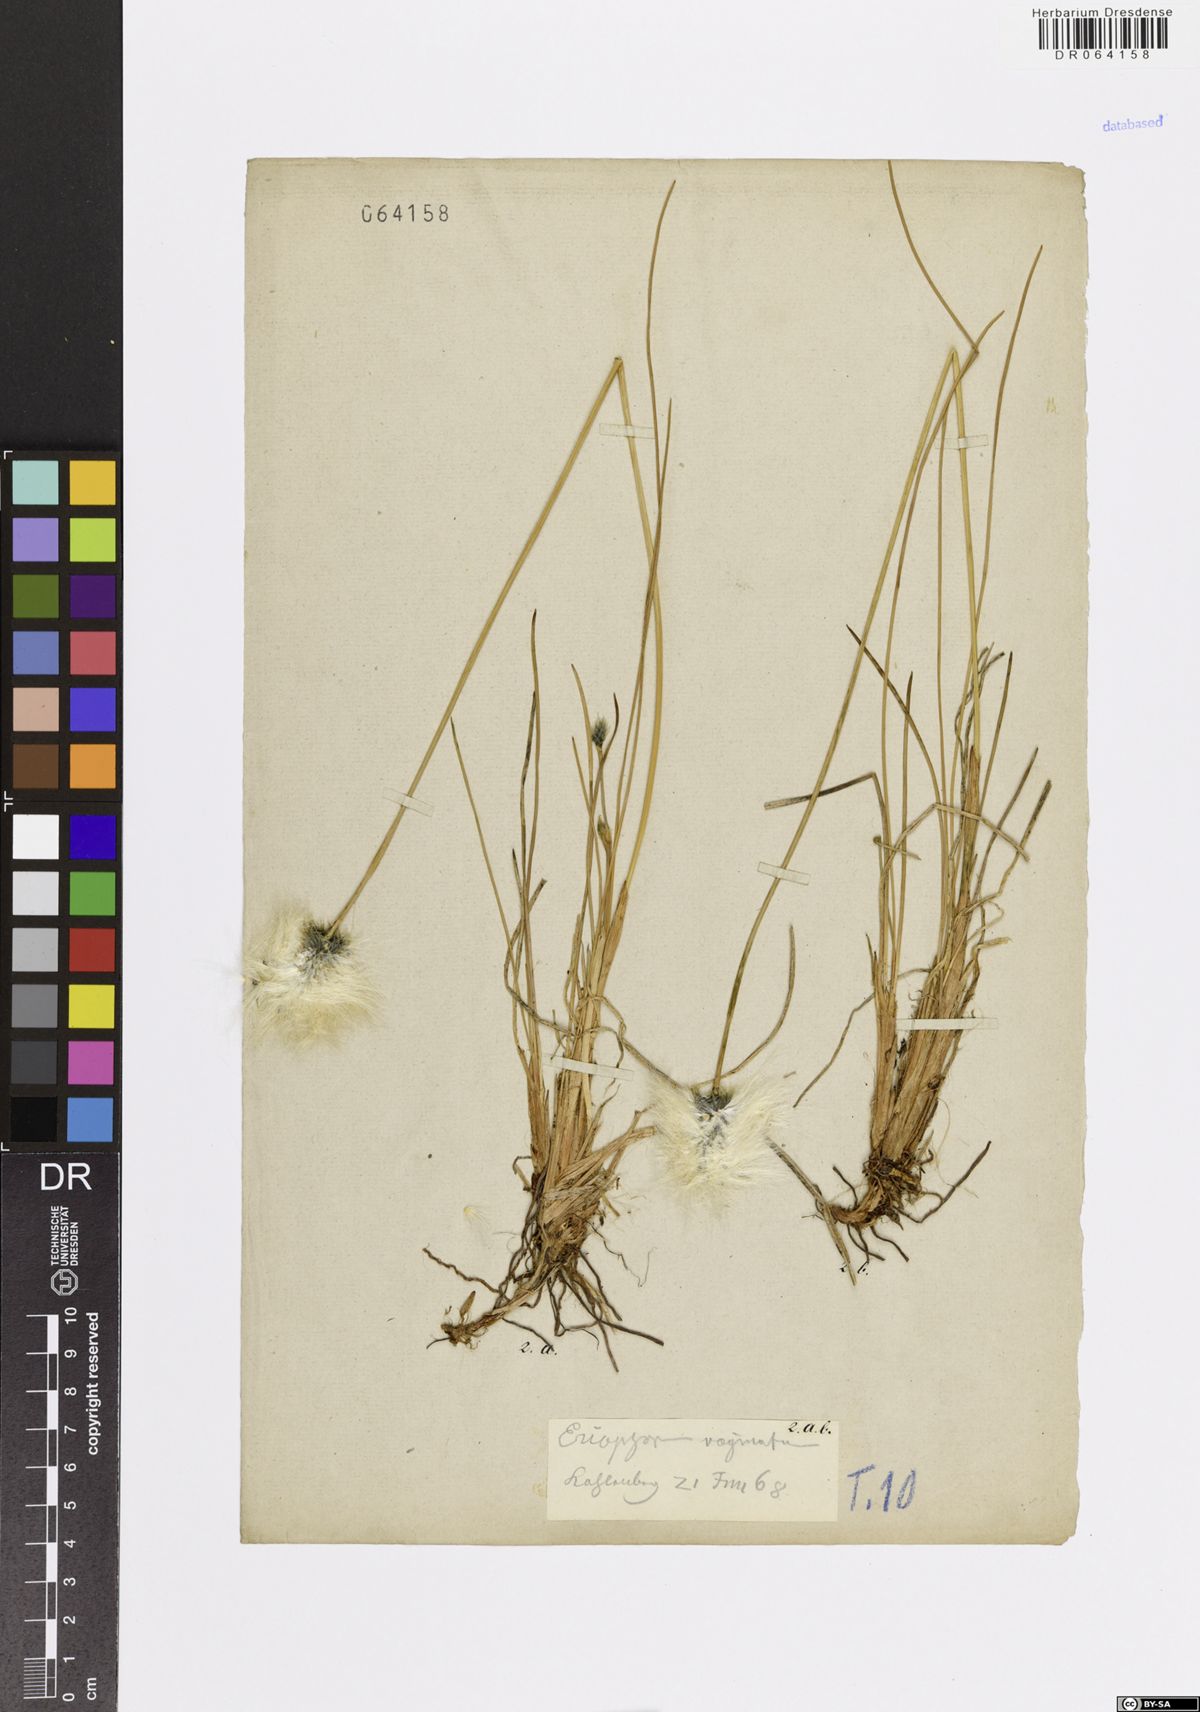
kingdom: Plantae
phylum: Tracheophyta
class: Liliopsida
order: Poales
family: Cyperaceae
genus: Eriophorum
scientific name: Eriophorum vaginatum
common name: Hare's-tail cottongrass
